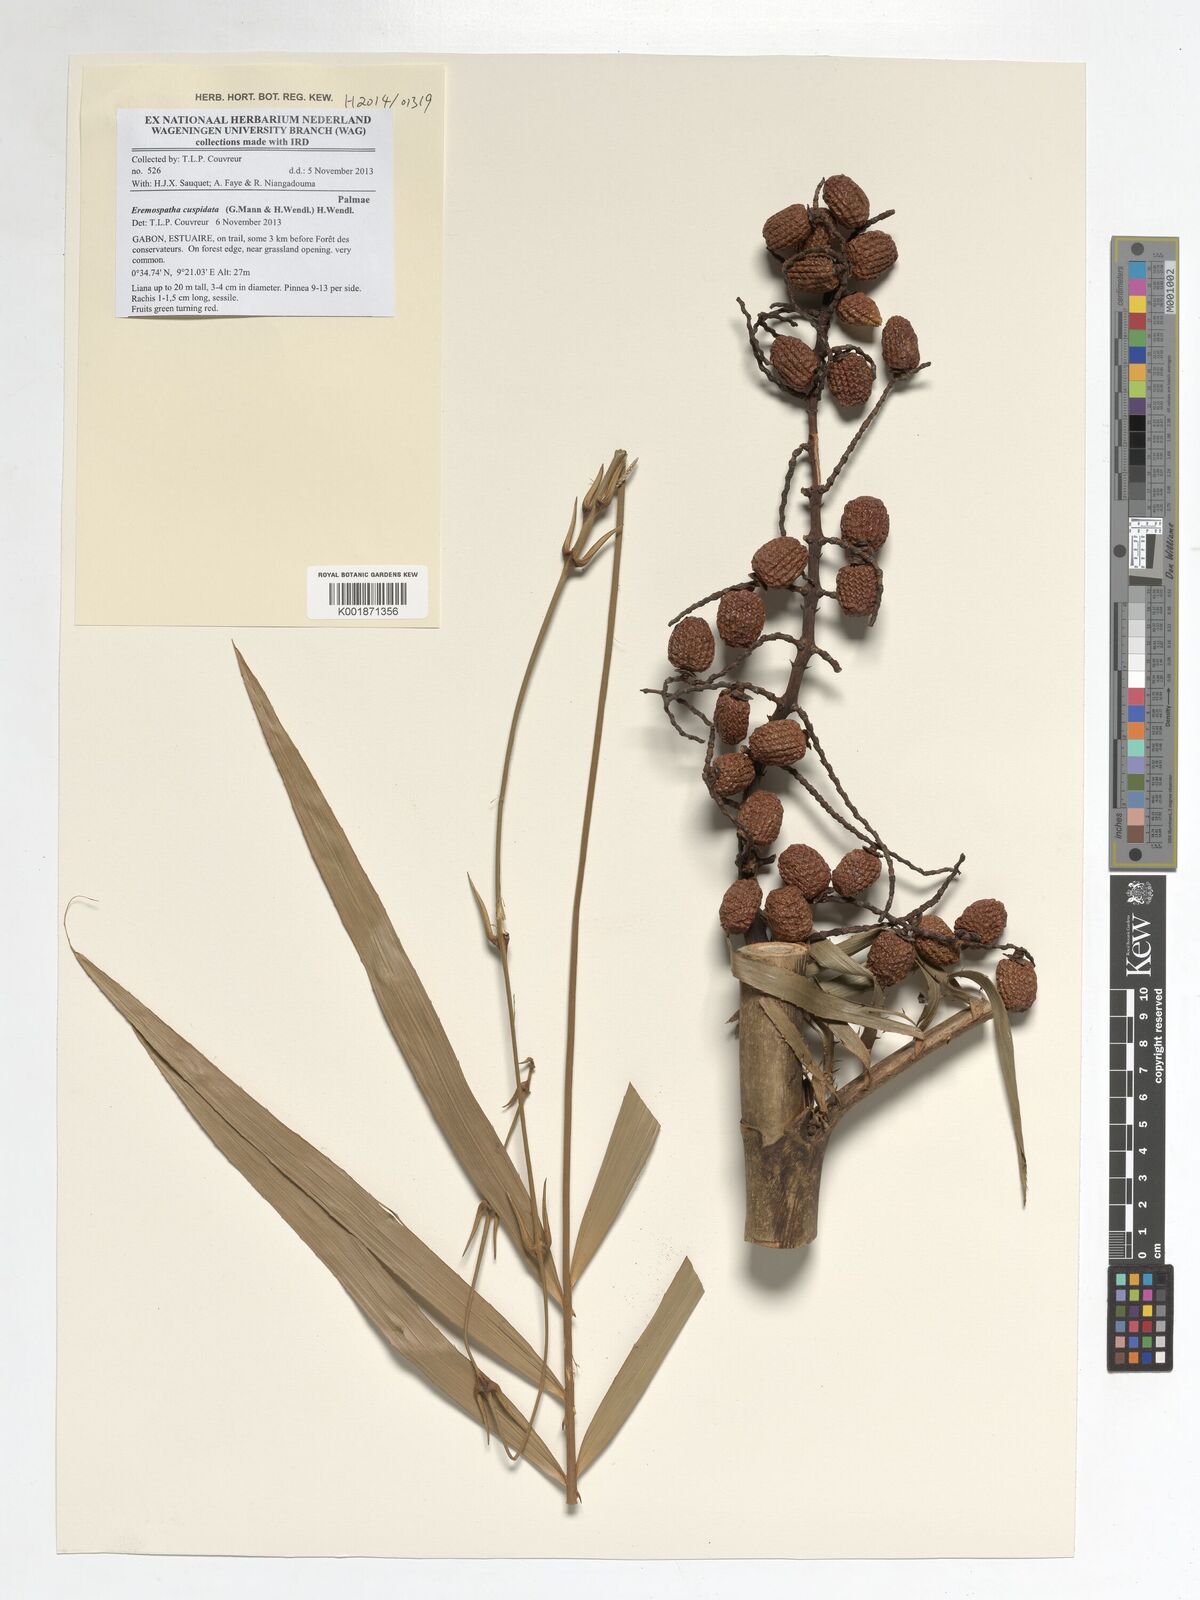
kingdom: Plantae
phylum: Tracheophyta
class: Liliopsida
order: Arecales
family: Arecaceae
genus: Eremospatha
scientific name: Eremospatha cuspidata
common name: Rattan
